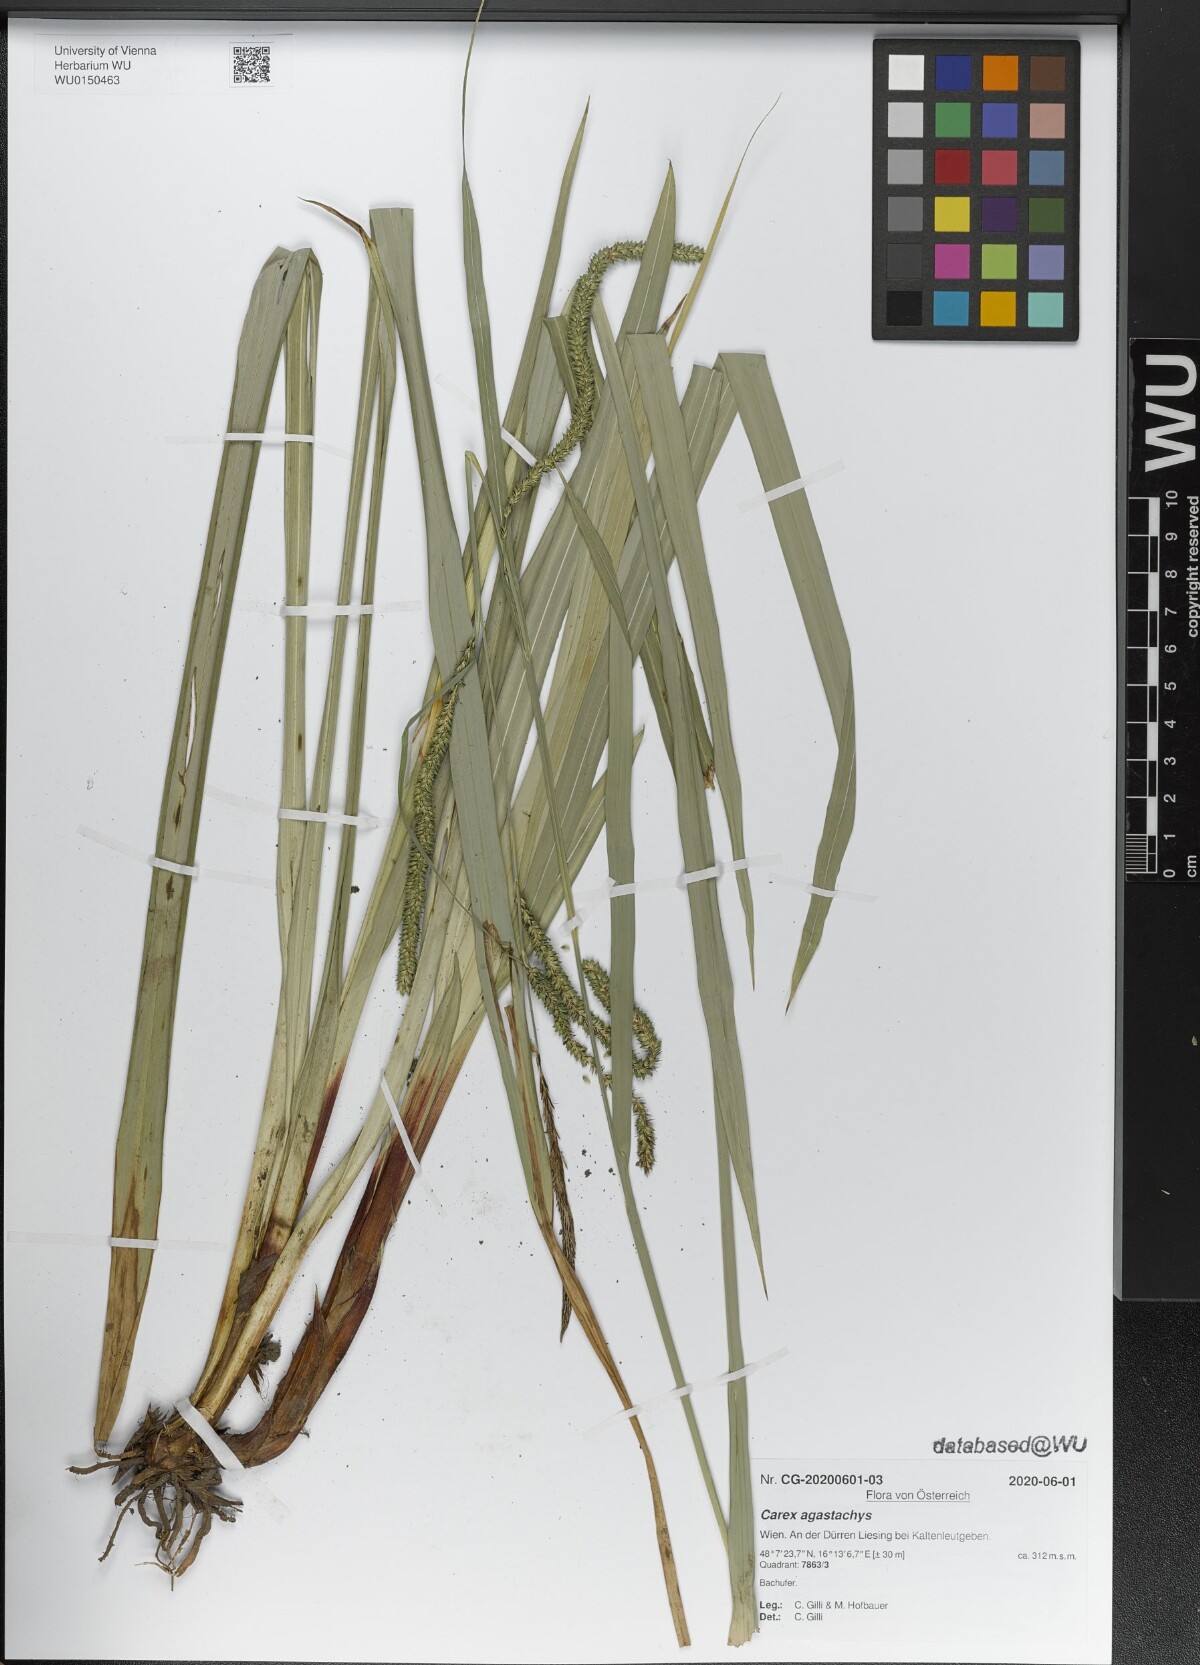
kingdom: Plantae
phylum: Tracheophyta
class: Liliopsida
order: Poales
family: Cyperaceae
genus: Carex
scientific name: Carex agastachys
